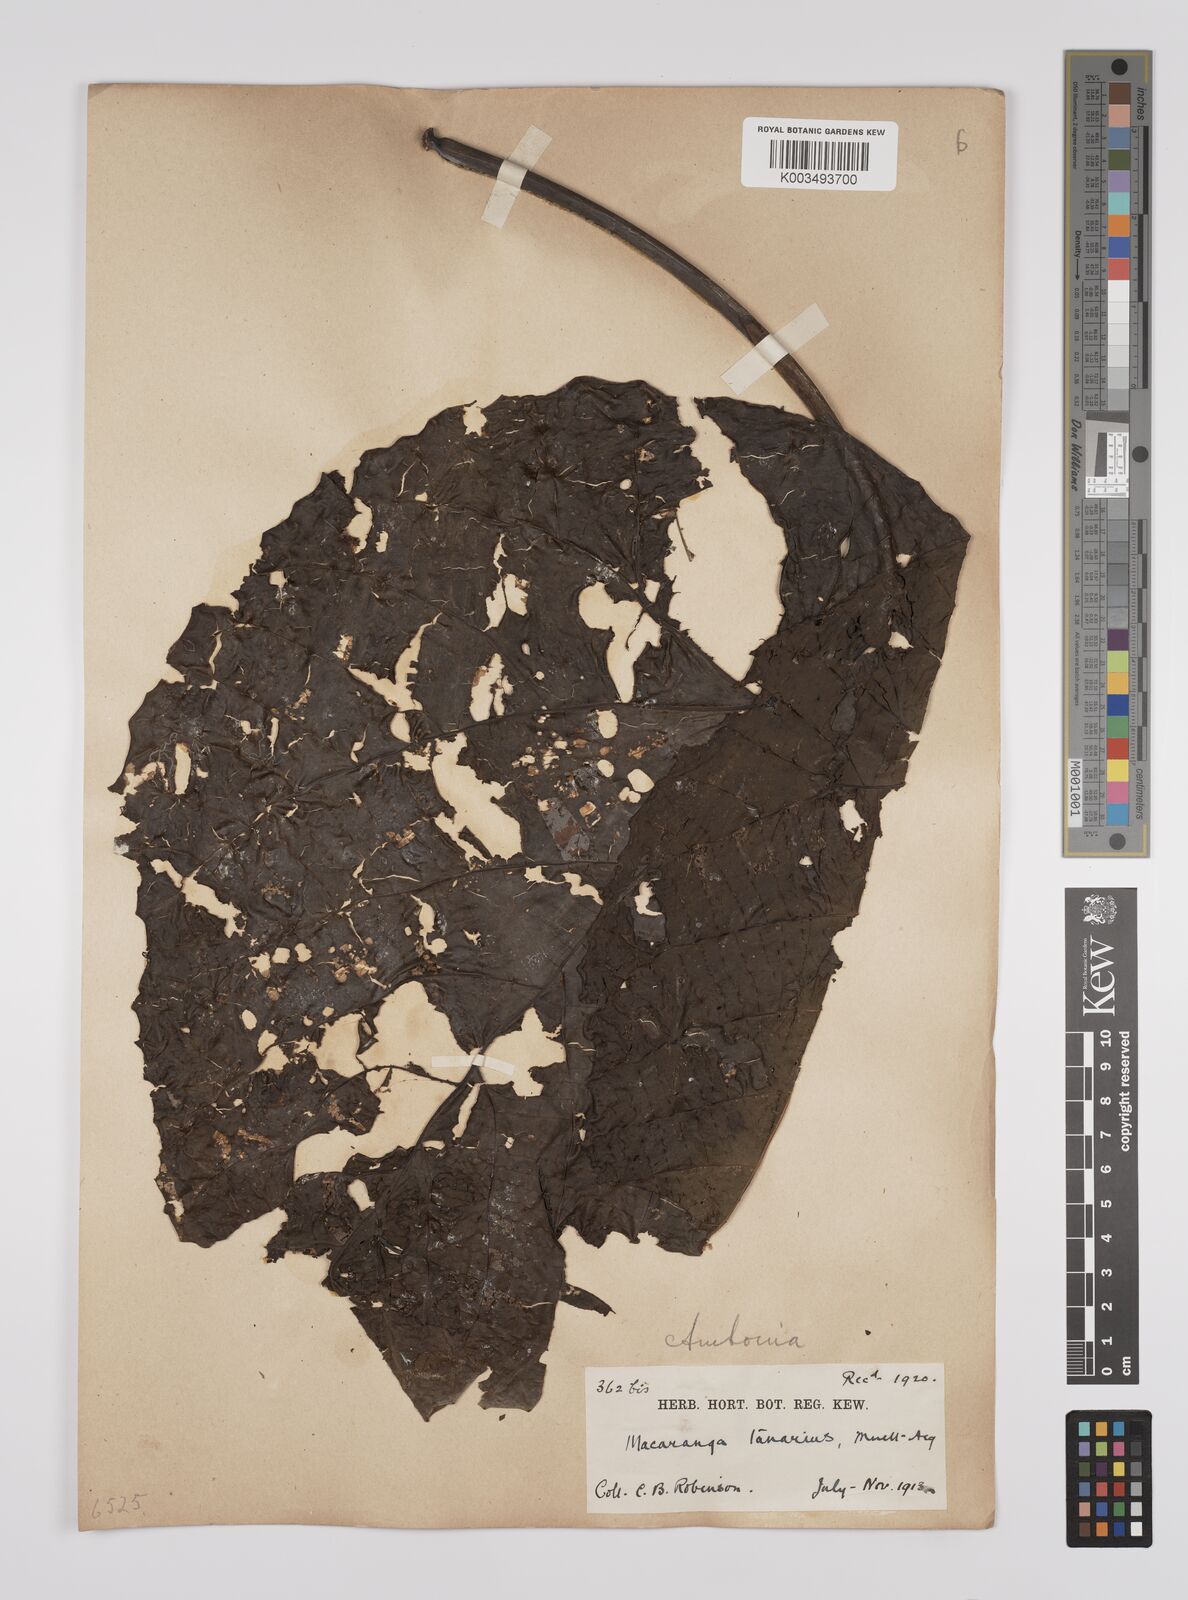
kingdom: Plantae
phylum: Tracheophyta
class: Magnoliopsida
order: Malpighiales
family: Euphorbiaceae
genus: Macaranga
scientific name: Macaranga tanarius
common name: Parasol leaf tree
